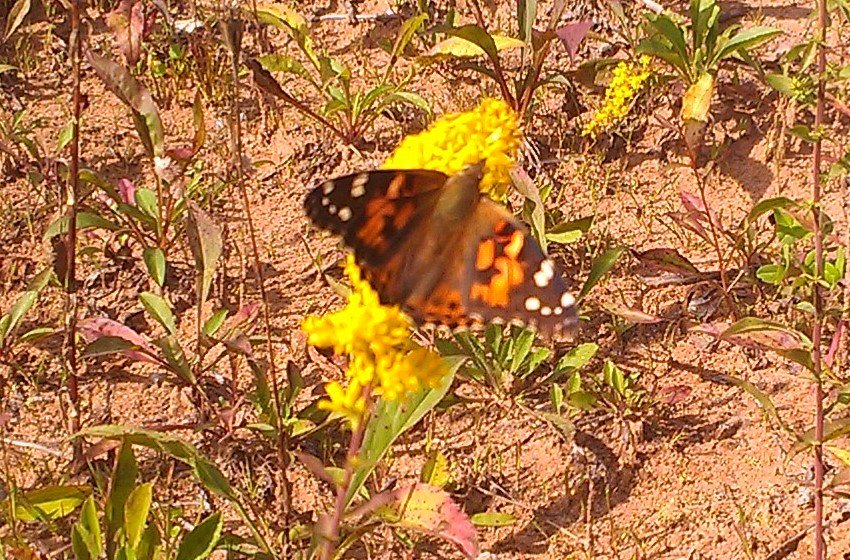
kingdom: Animalia
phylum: Arthropoda
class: Insecta
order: Lepidoptera
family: Nymphalidae
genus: Vanessa
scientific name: Vanessa cardui
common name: Painted Lady
